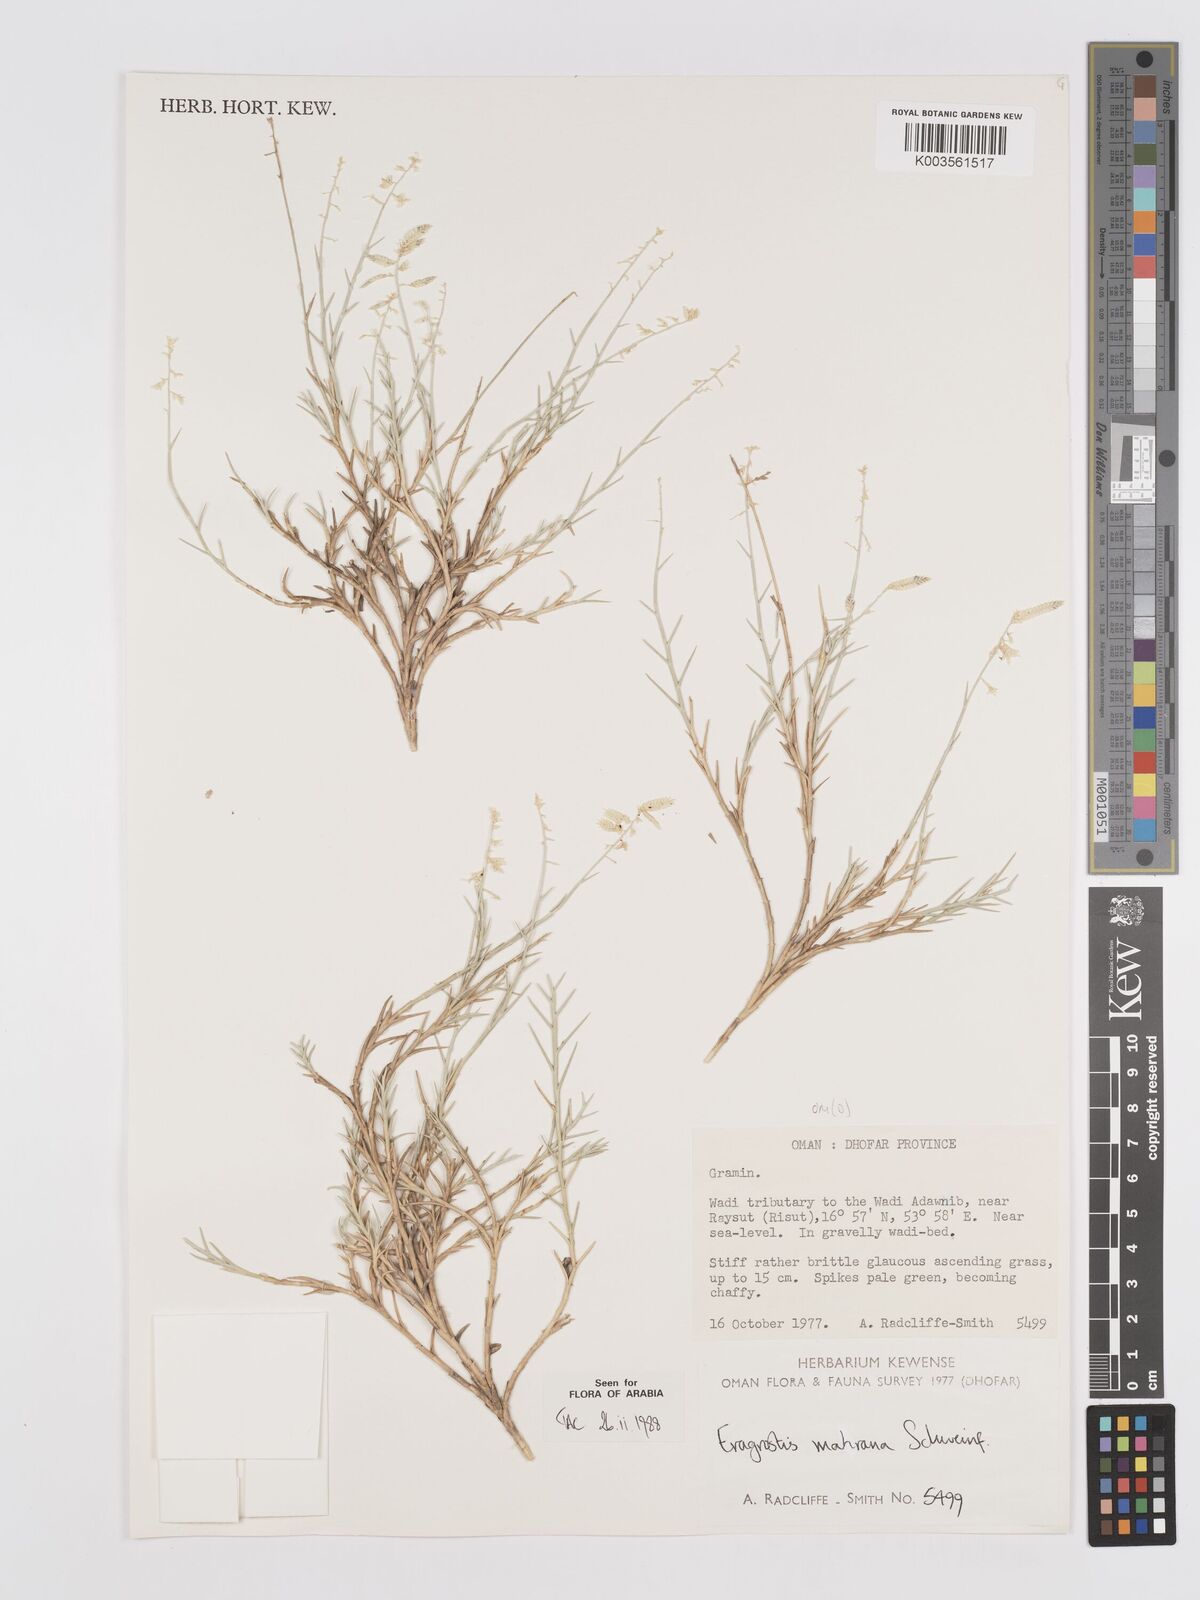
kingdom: Plantae
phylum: Tracheophyta
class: Liliopsida
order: Poales
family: Poaceae
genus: Eragrostis
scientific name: Eragrostis mahrana
